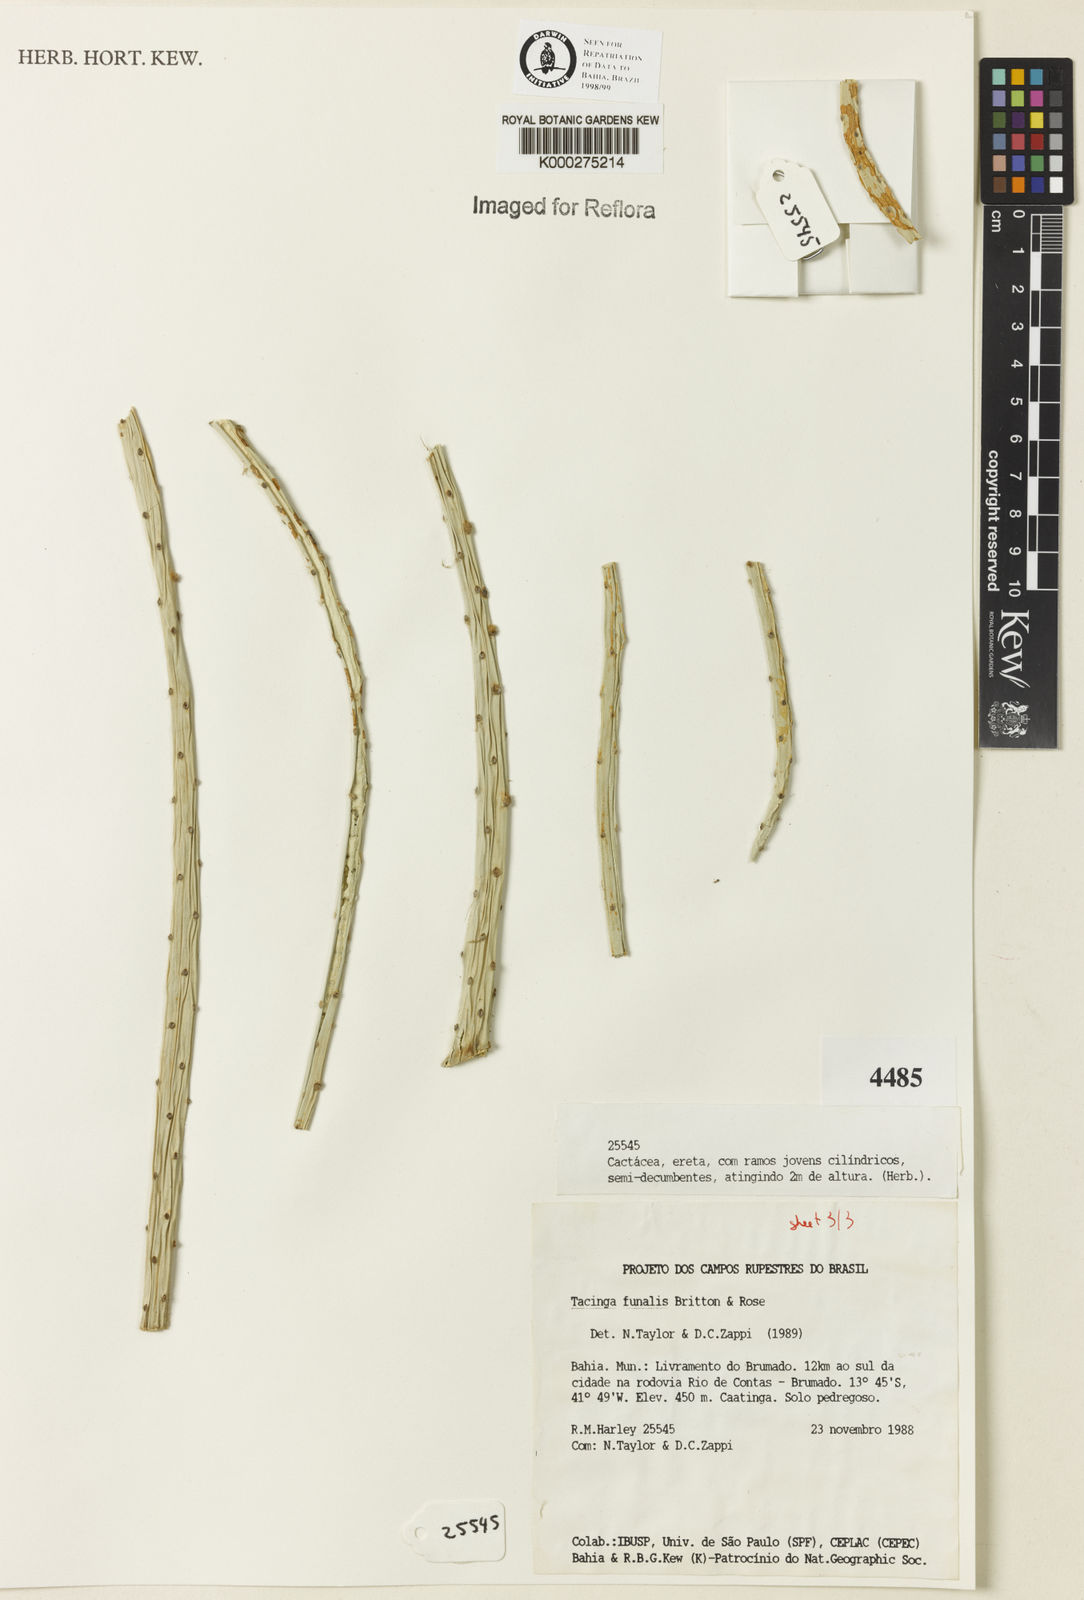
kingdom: Plantae
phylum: Tracheophyta
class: Magnoliopsida
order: Caryophyllales
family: Cactaceae
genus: Tacinga
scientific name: Tacinga funalis
